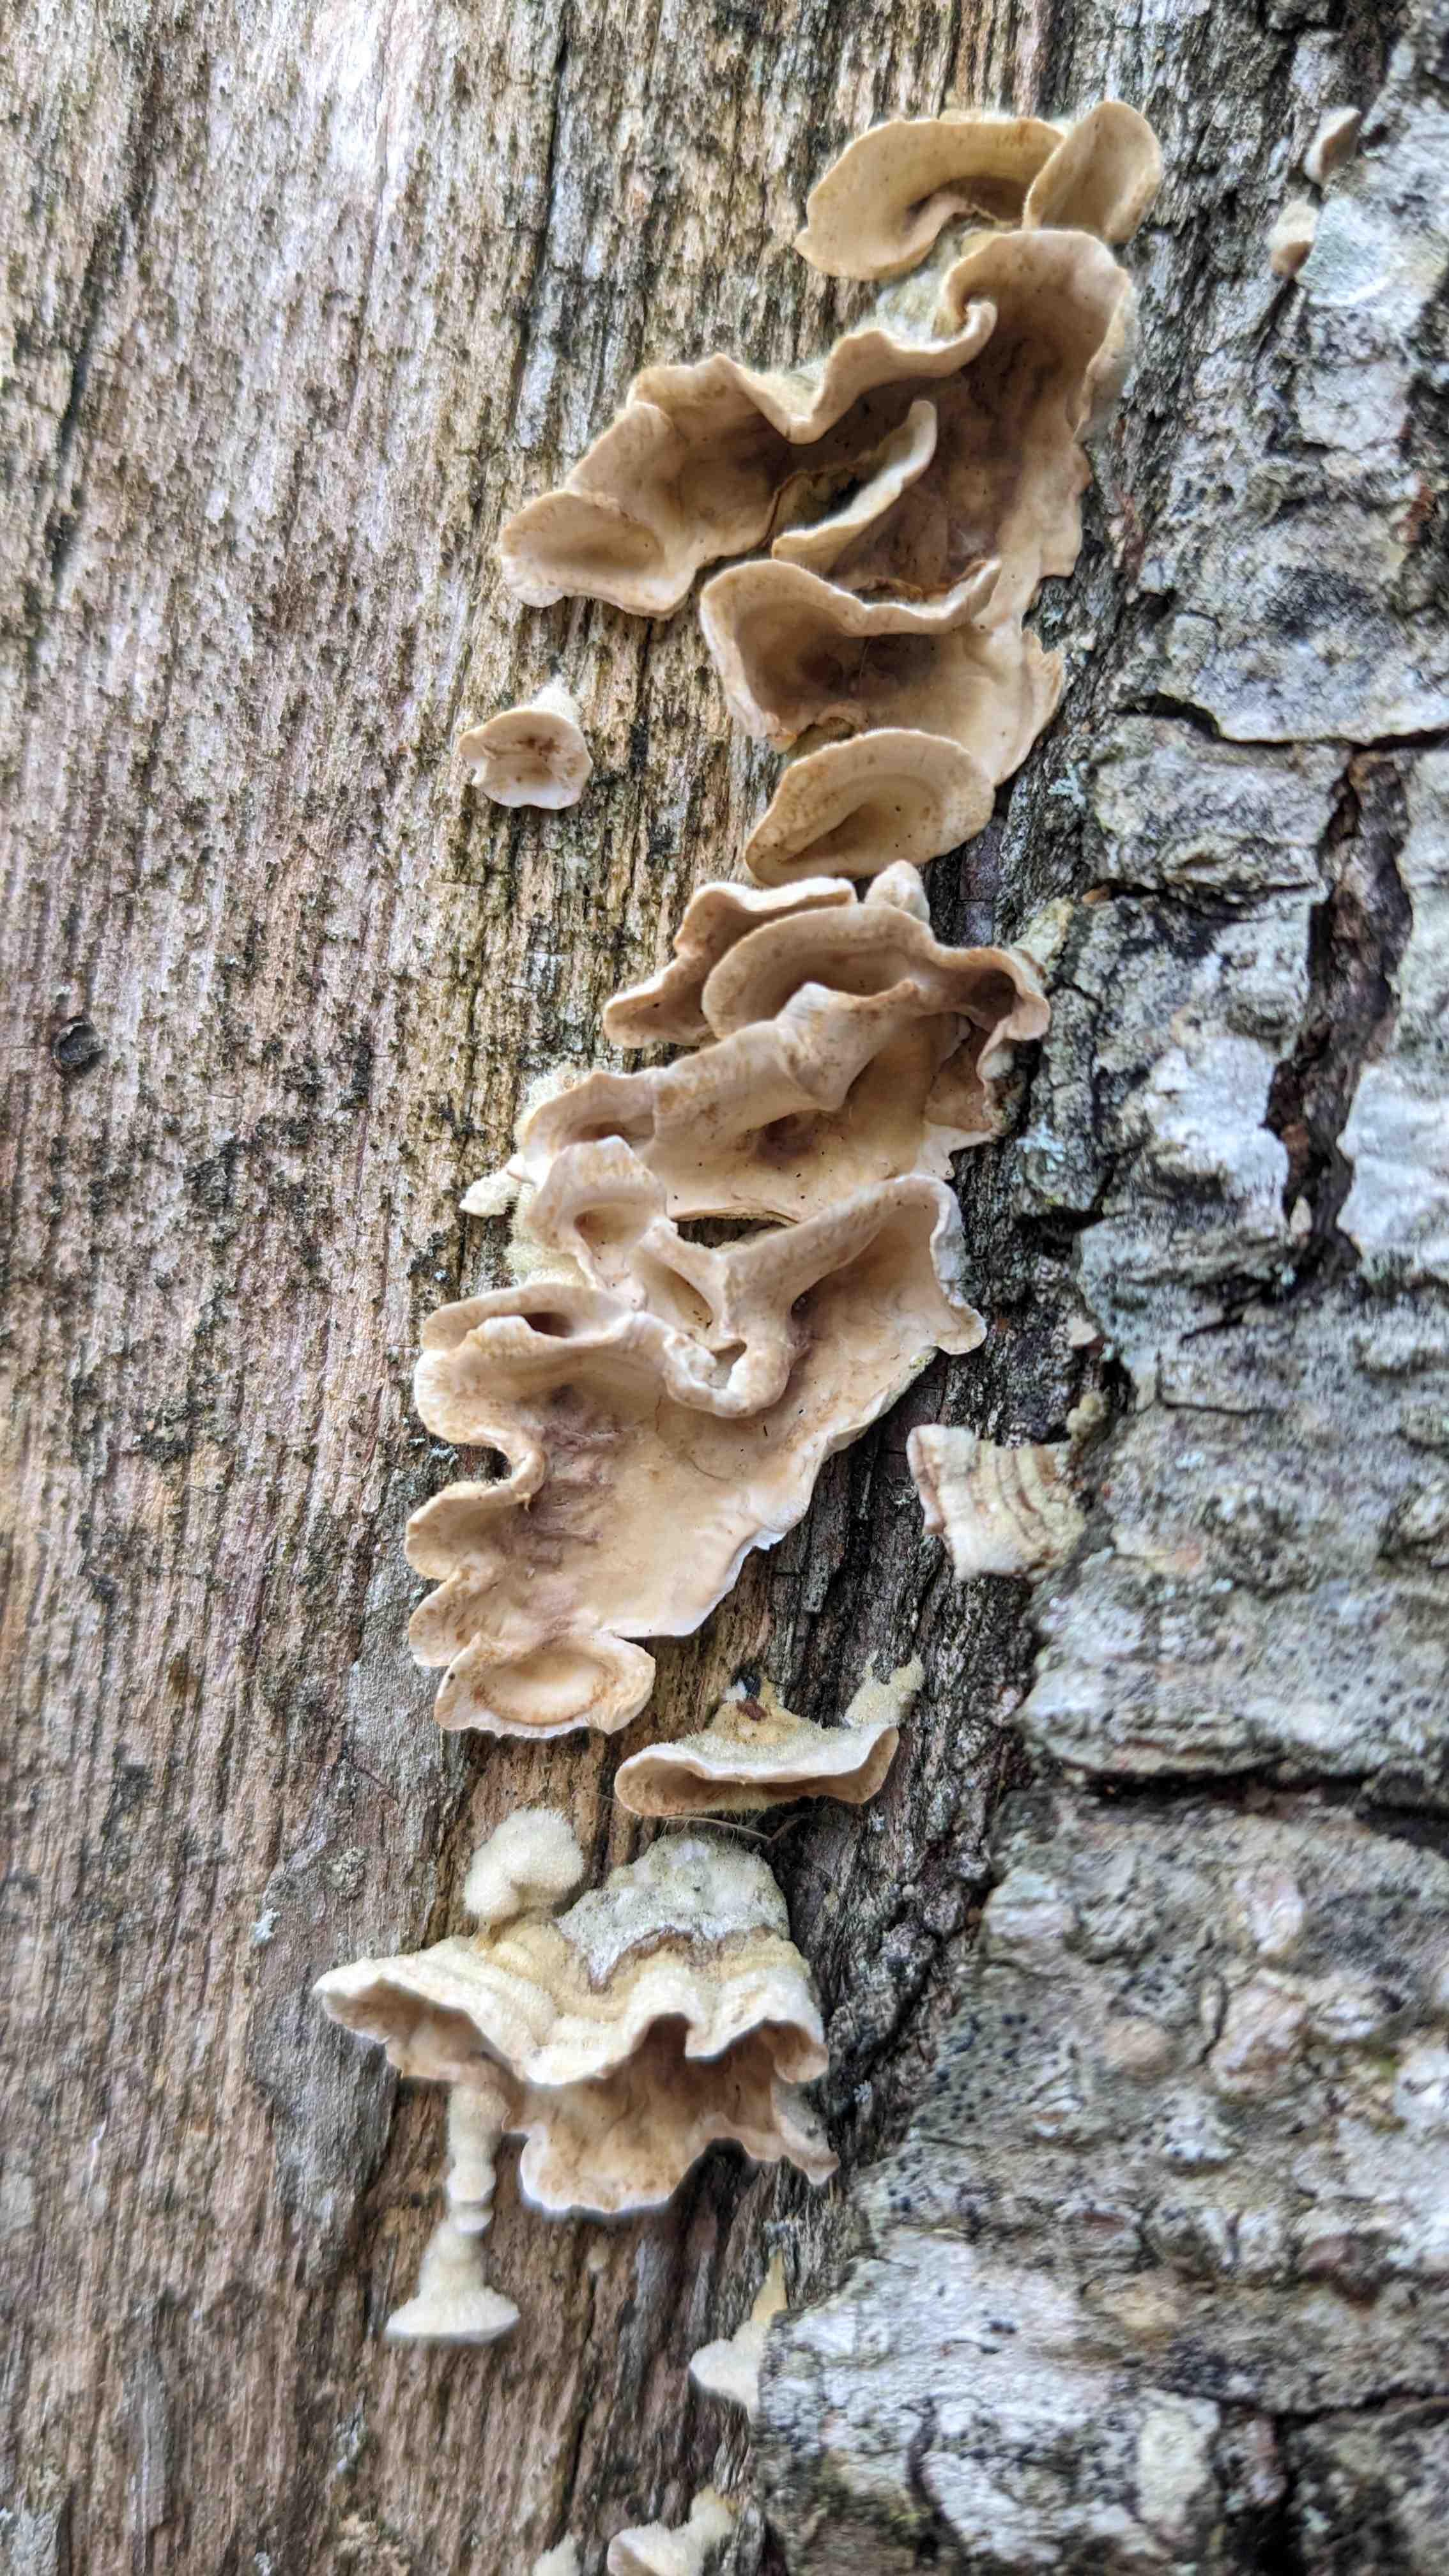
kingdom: Fungi
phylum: Basidiomycota
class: Agaricomycetes
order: Russulales
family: Stereaceae
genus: Stereum
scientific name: Stereum hirsutum
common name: håret lædersvamp
